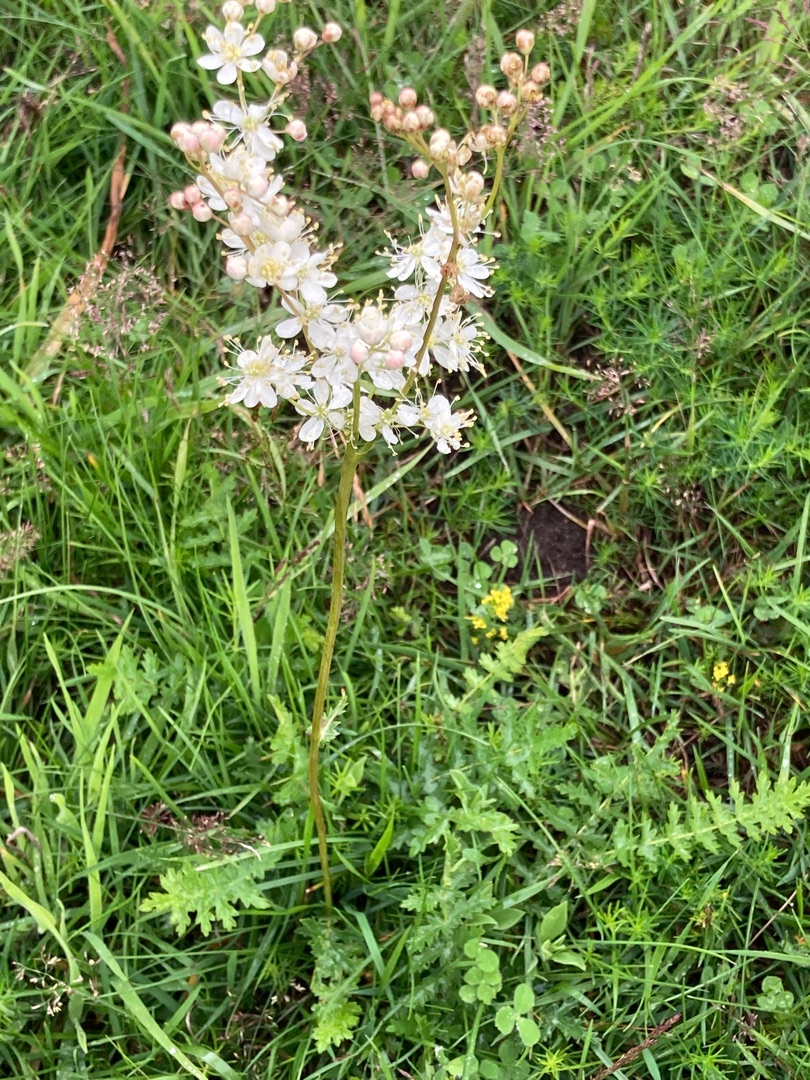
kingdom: Plantae
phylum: Tracheophyta
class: Magnoliopsida
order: Rosales
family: Rosaceae
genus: Filipendula
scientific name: Filipendula vulgaris
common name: Knoldet mjødurt
